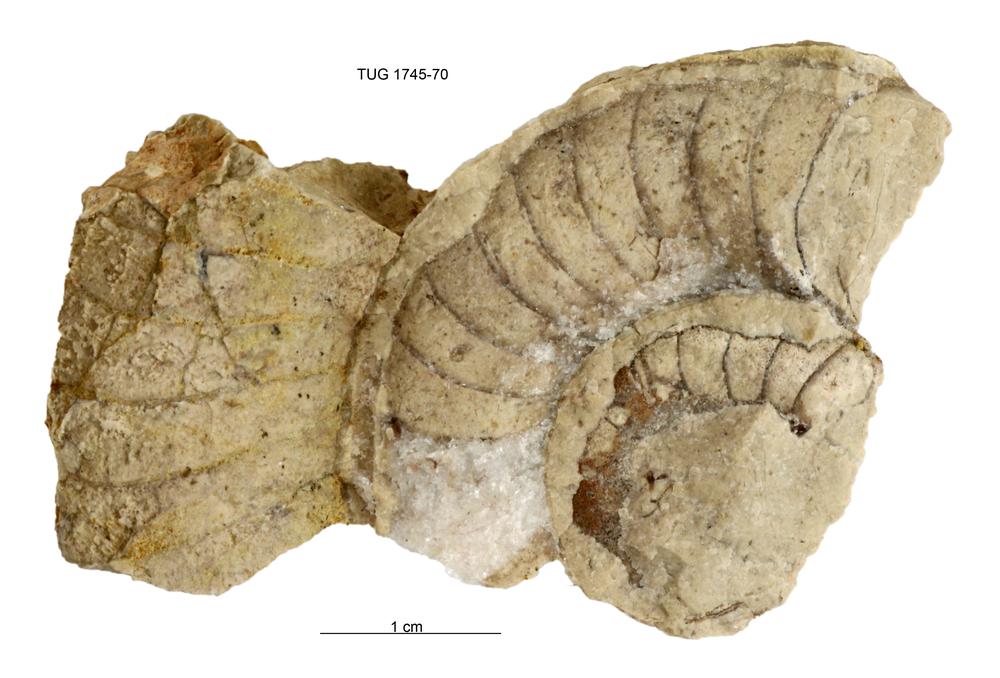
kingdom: Animalia
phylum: Mollusca
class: Cephalopoda
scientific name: Cephalopoda
